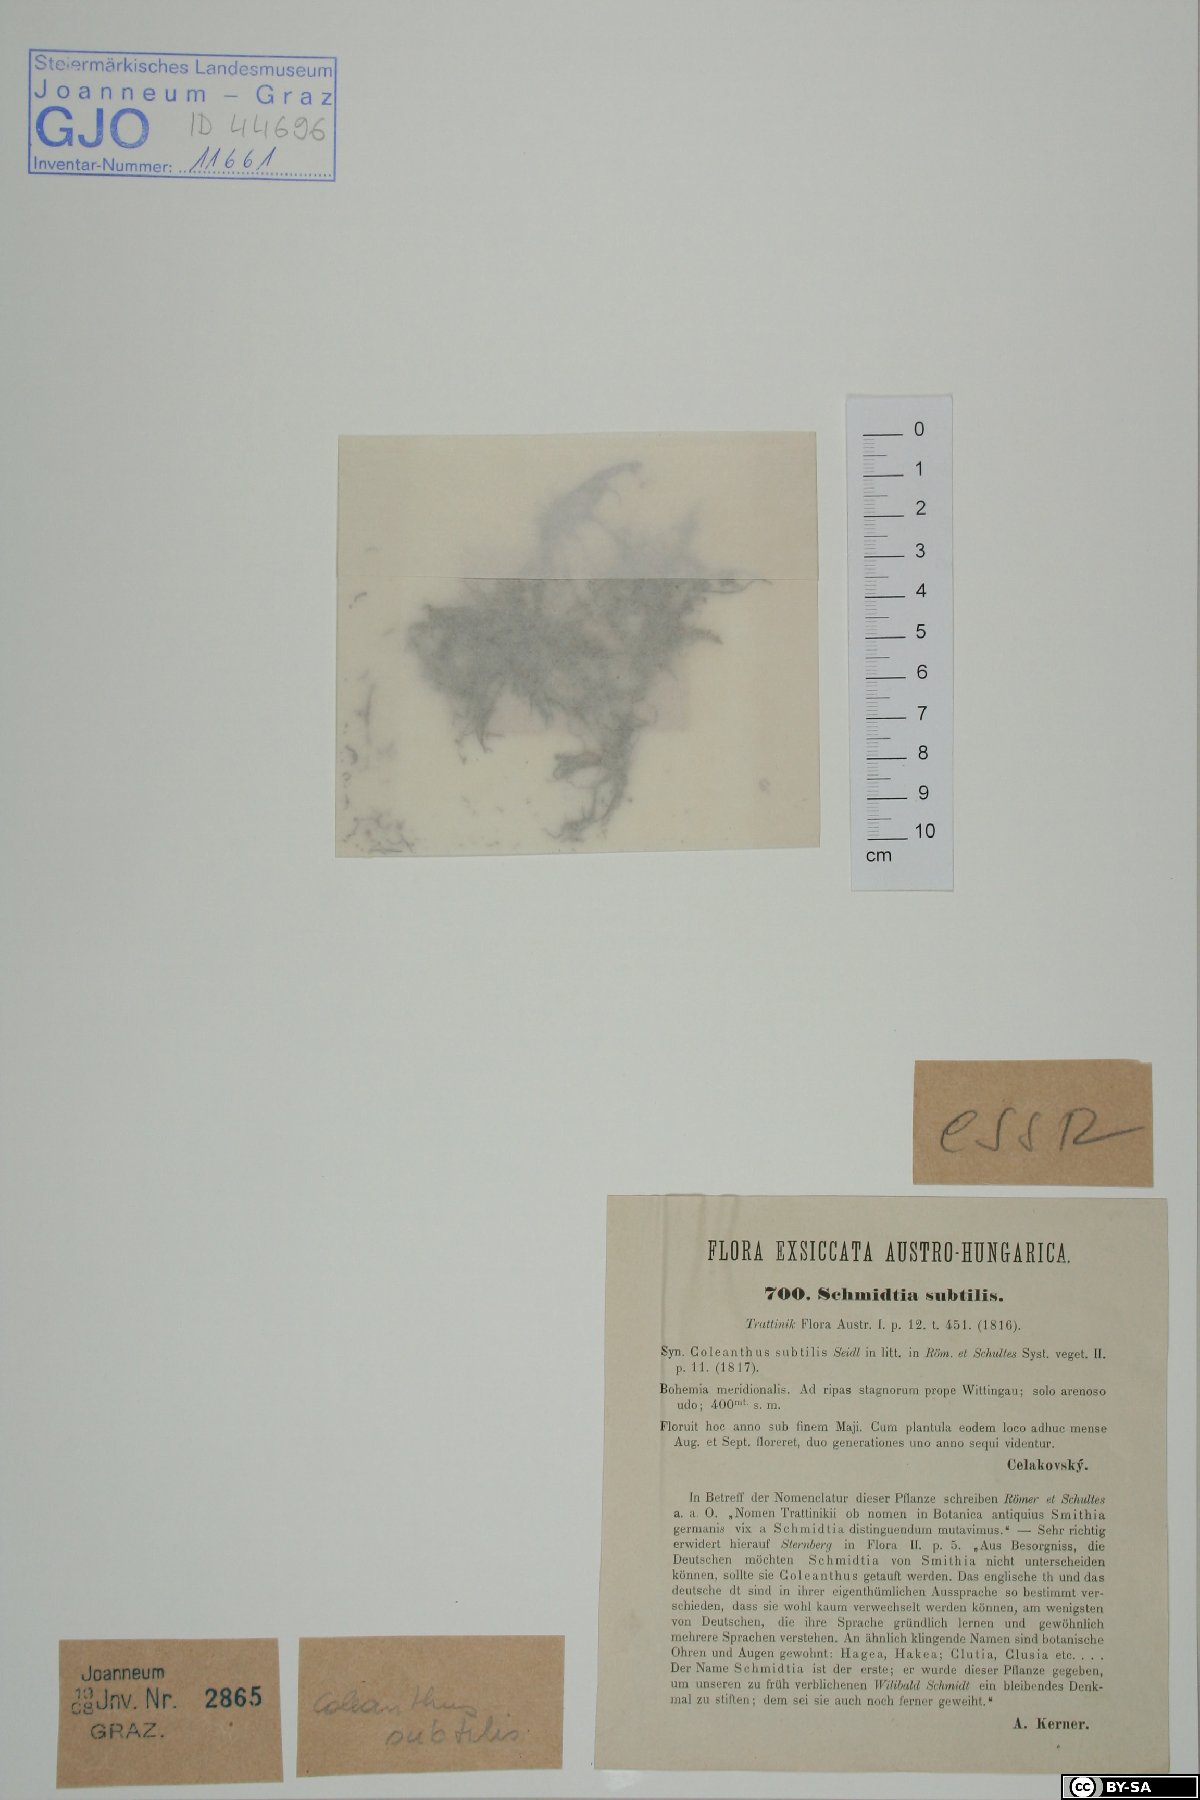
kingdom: Plantae
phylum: Tracheophyta
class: Liliopsida
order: Poales
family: Poaceae
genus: Coleanthus
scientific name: Coleanthus subtilis
